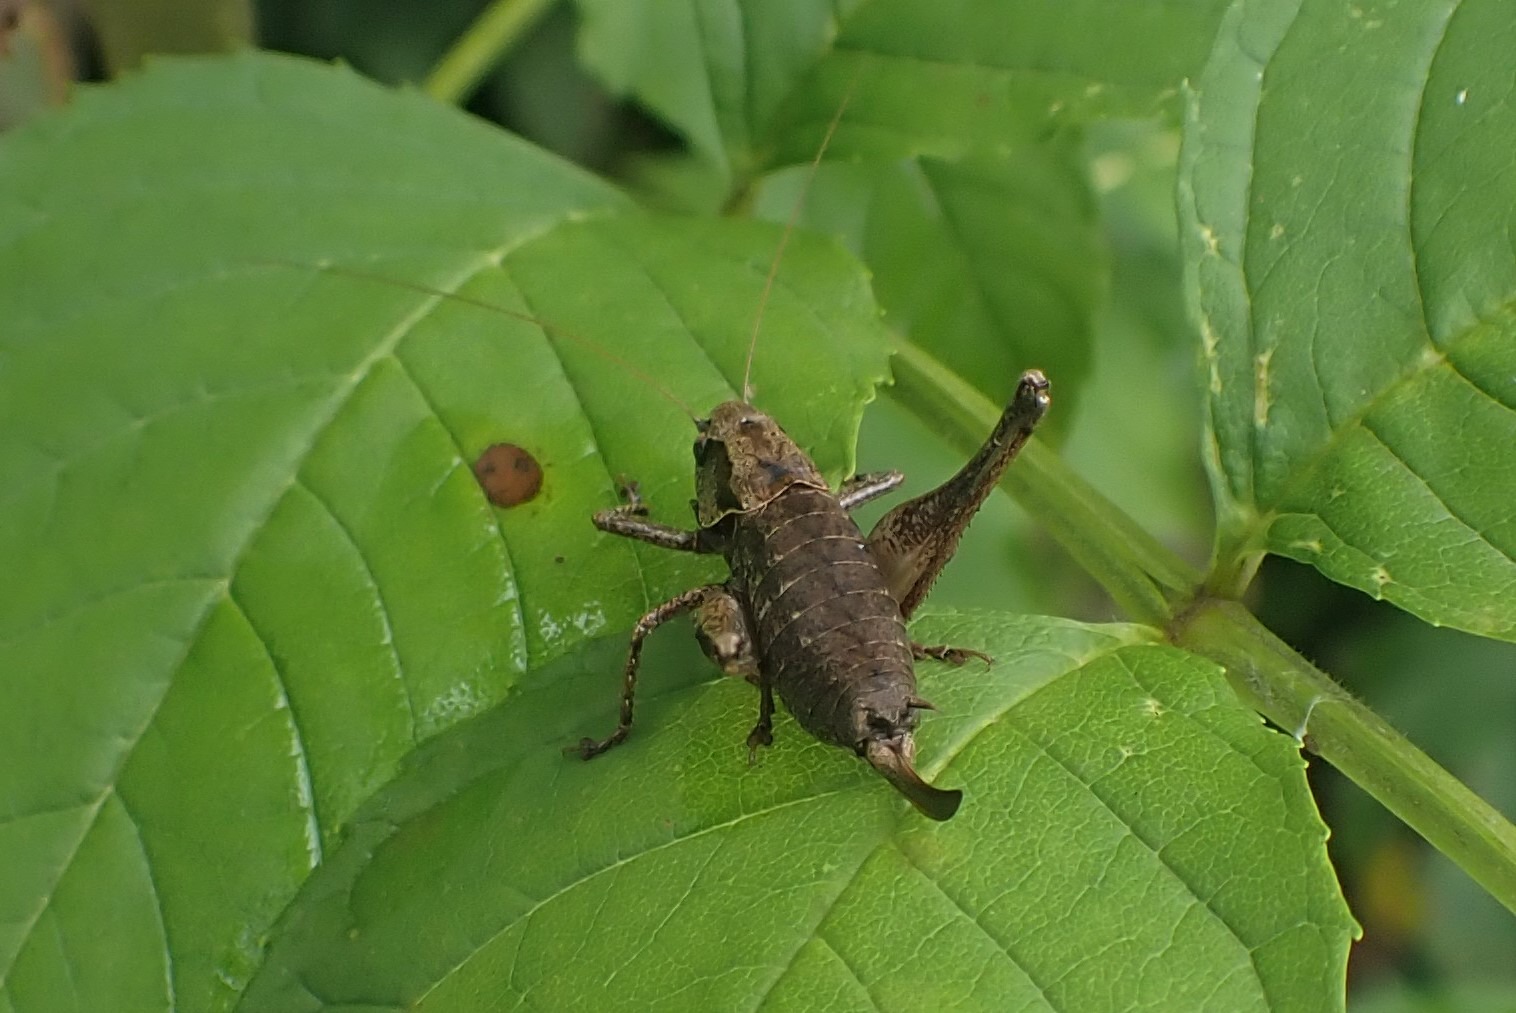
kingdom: Animalia
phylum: Arthropoda
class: Insecta
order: Orthoptera
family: Tettigoniidae
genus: Pholidoptera
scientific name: Pholidoptera griseoaptera
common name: Buskgræshoppe
